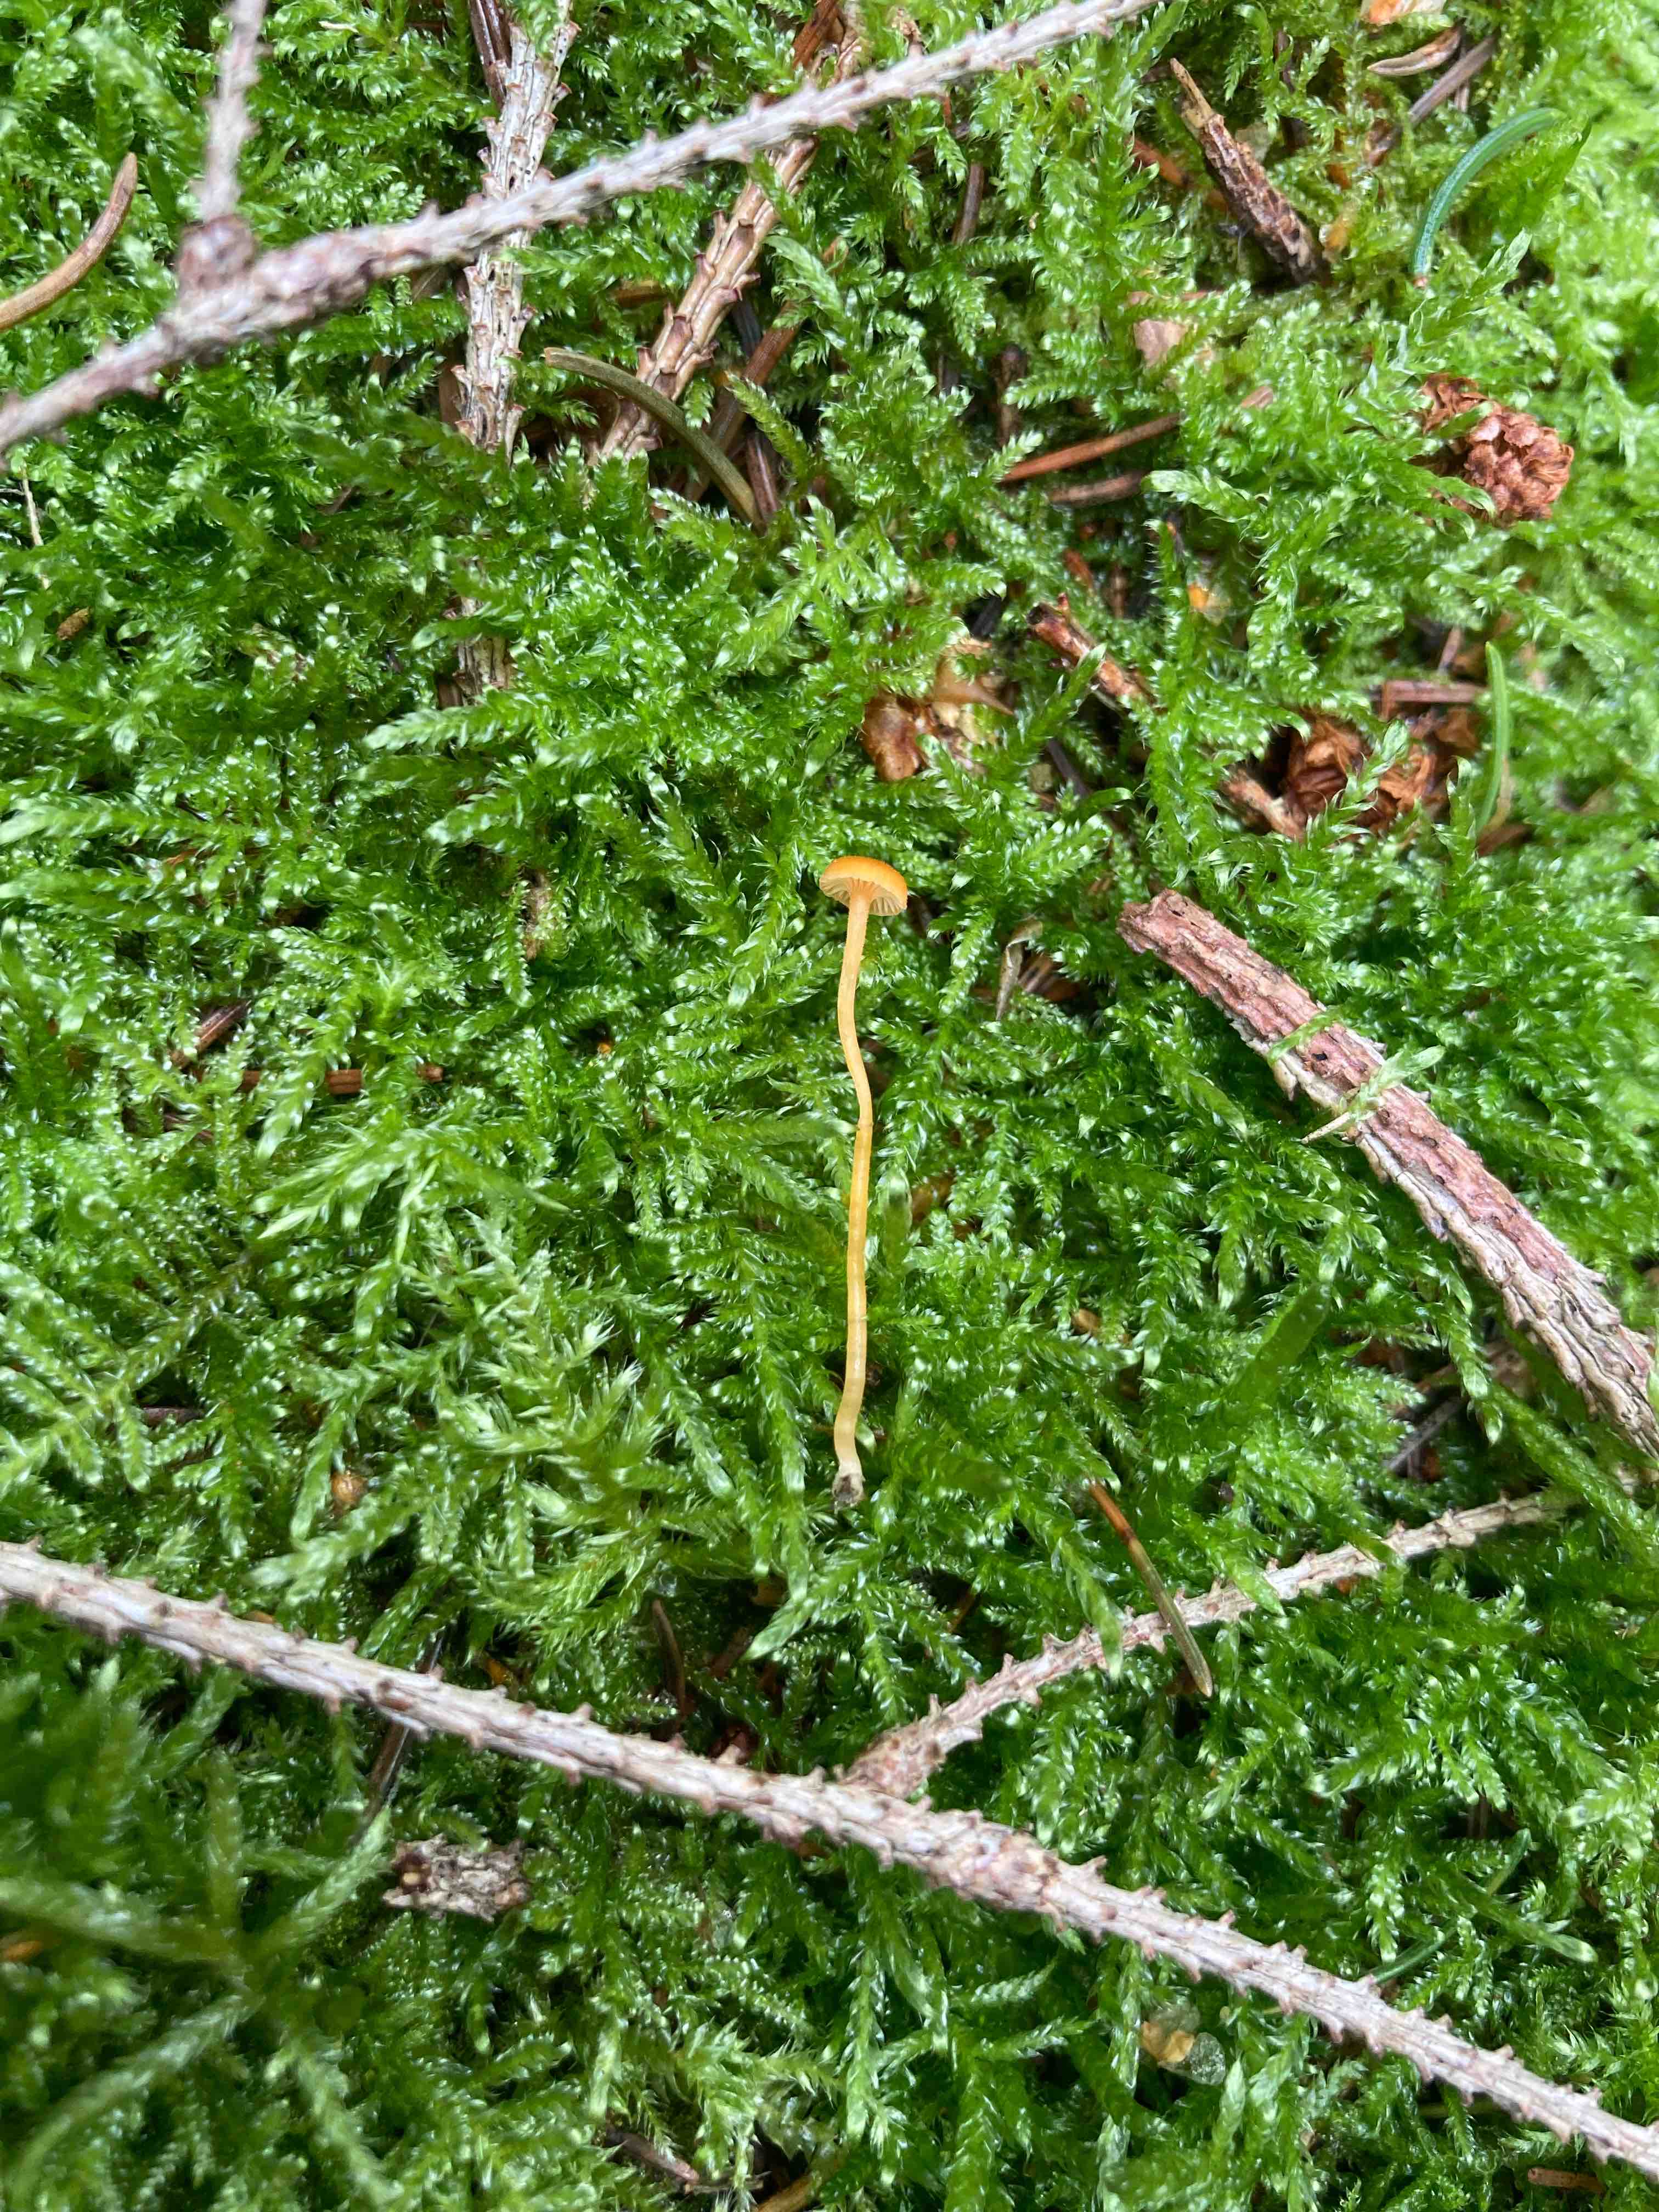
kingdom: Fungi
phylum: Basidiomycota
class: Agaricomycetes
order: Hymenochaetales
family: Rickenellaceae
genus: Rickenella
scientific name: Rickenella fibula
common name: orange mosnavlehat
